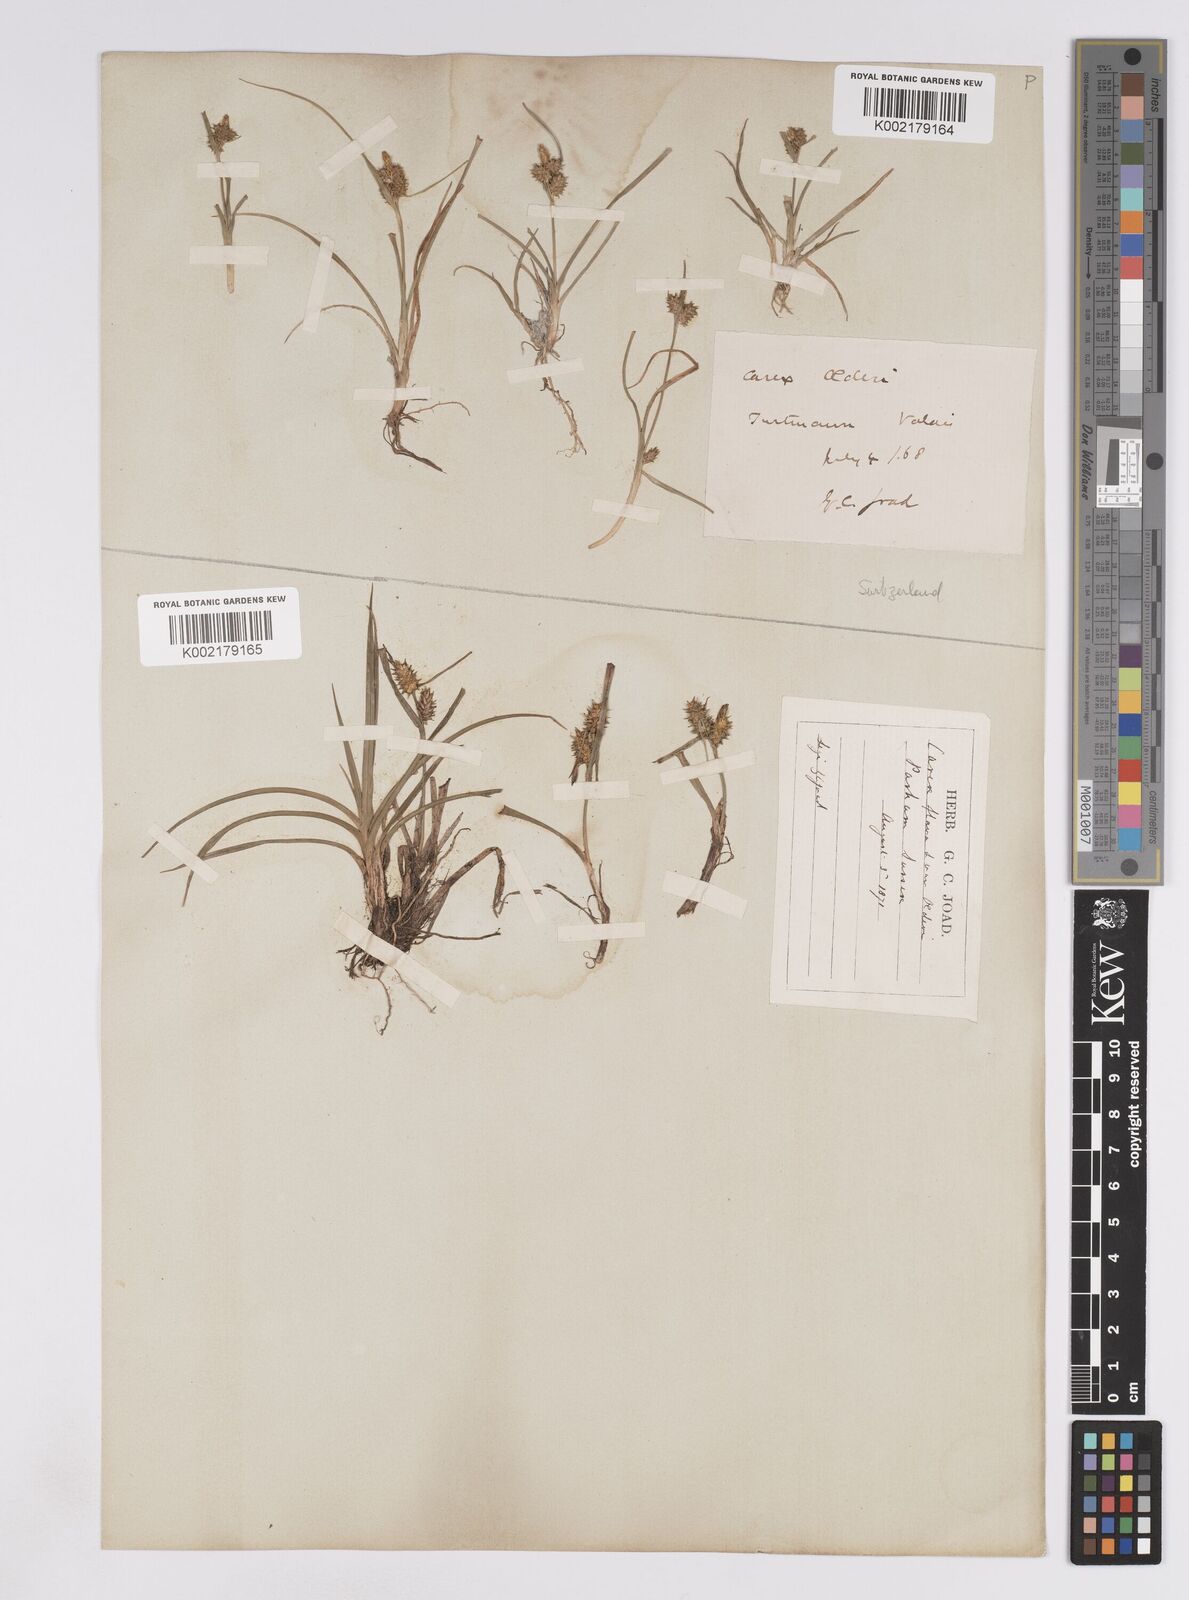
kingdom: Plantae
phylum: Tracheophyta
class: Liliopsida
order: Poales
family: Cyperaceae
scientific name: Cyperaceae
